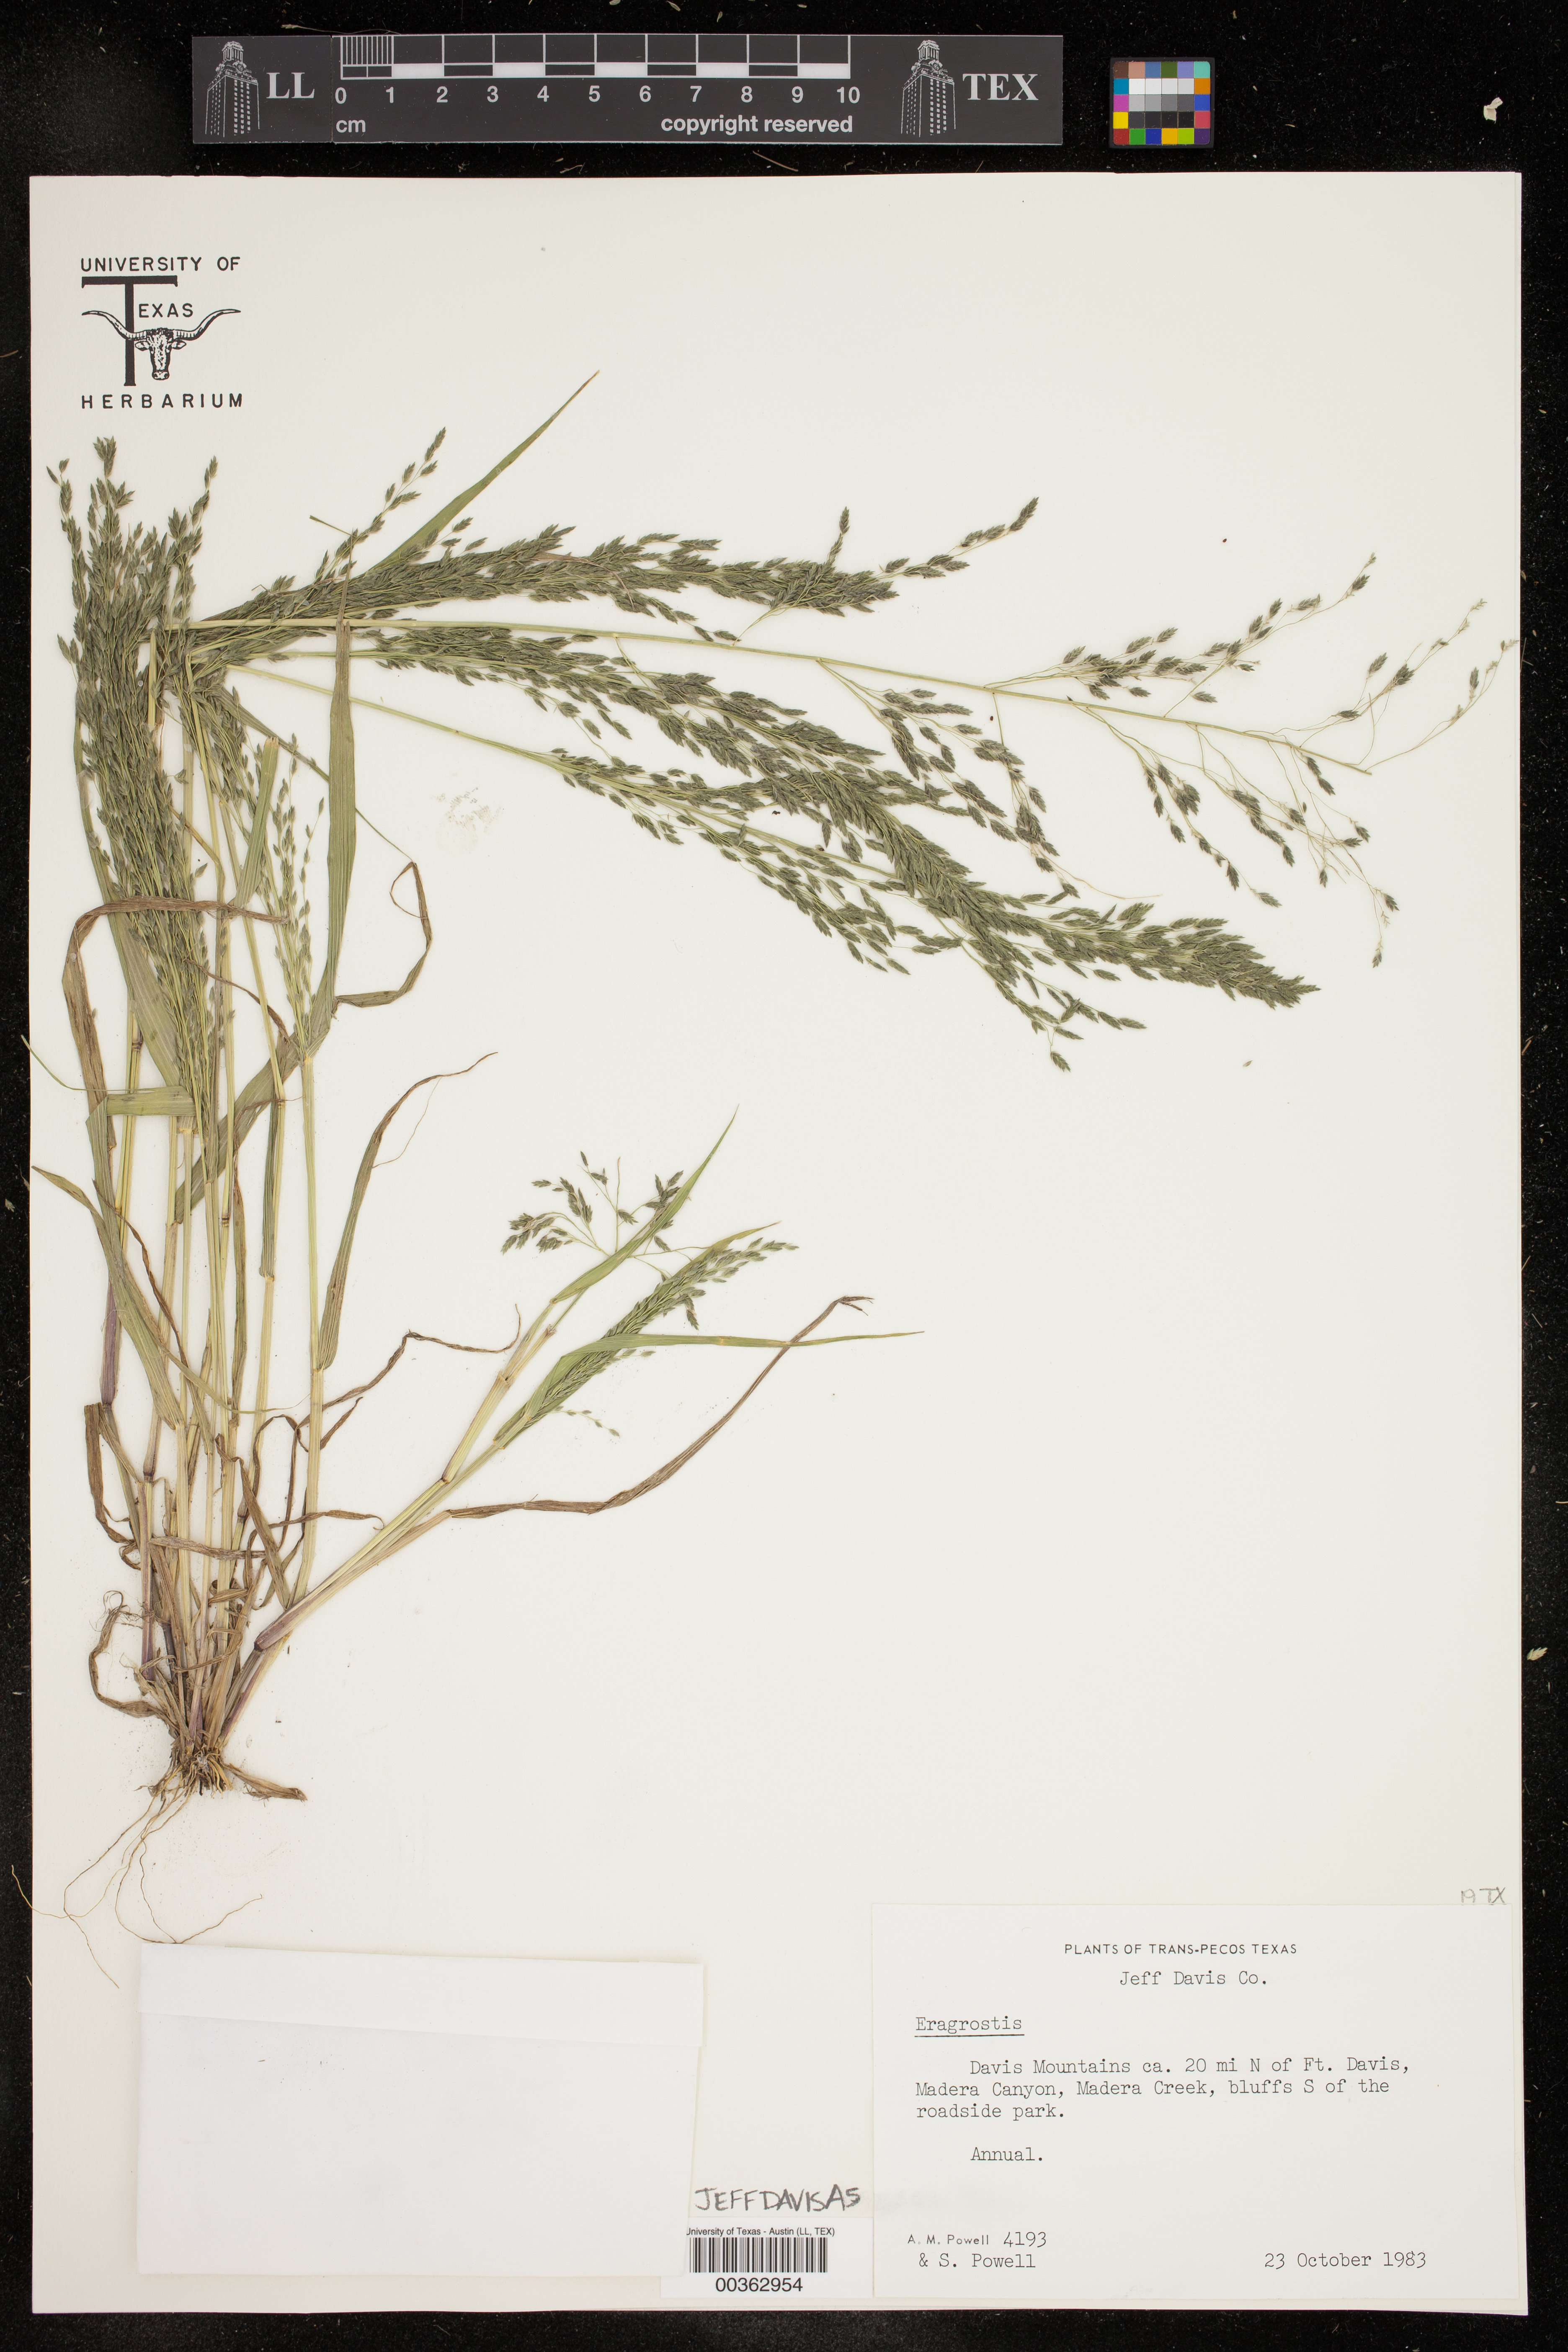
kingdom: Plantae
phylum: Tracheophyta
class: Liliopsida
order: Poales
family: Poaceae
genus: Eragrostis
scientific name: Eragrostis
